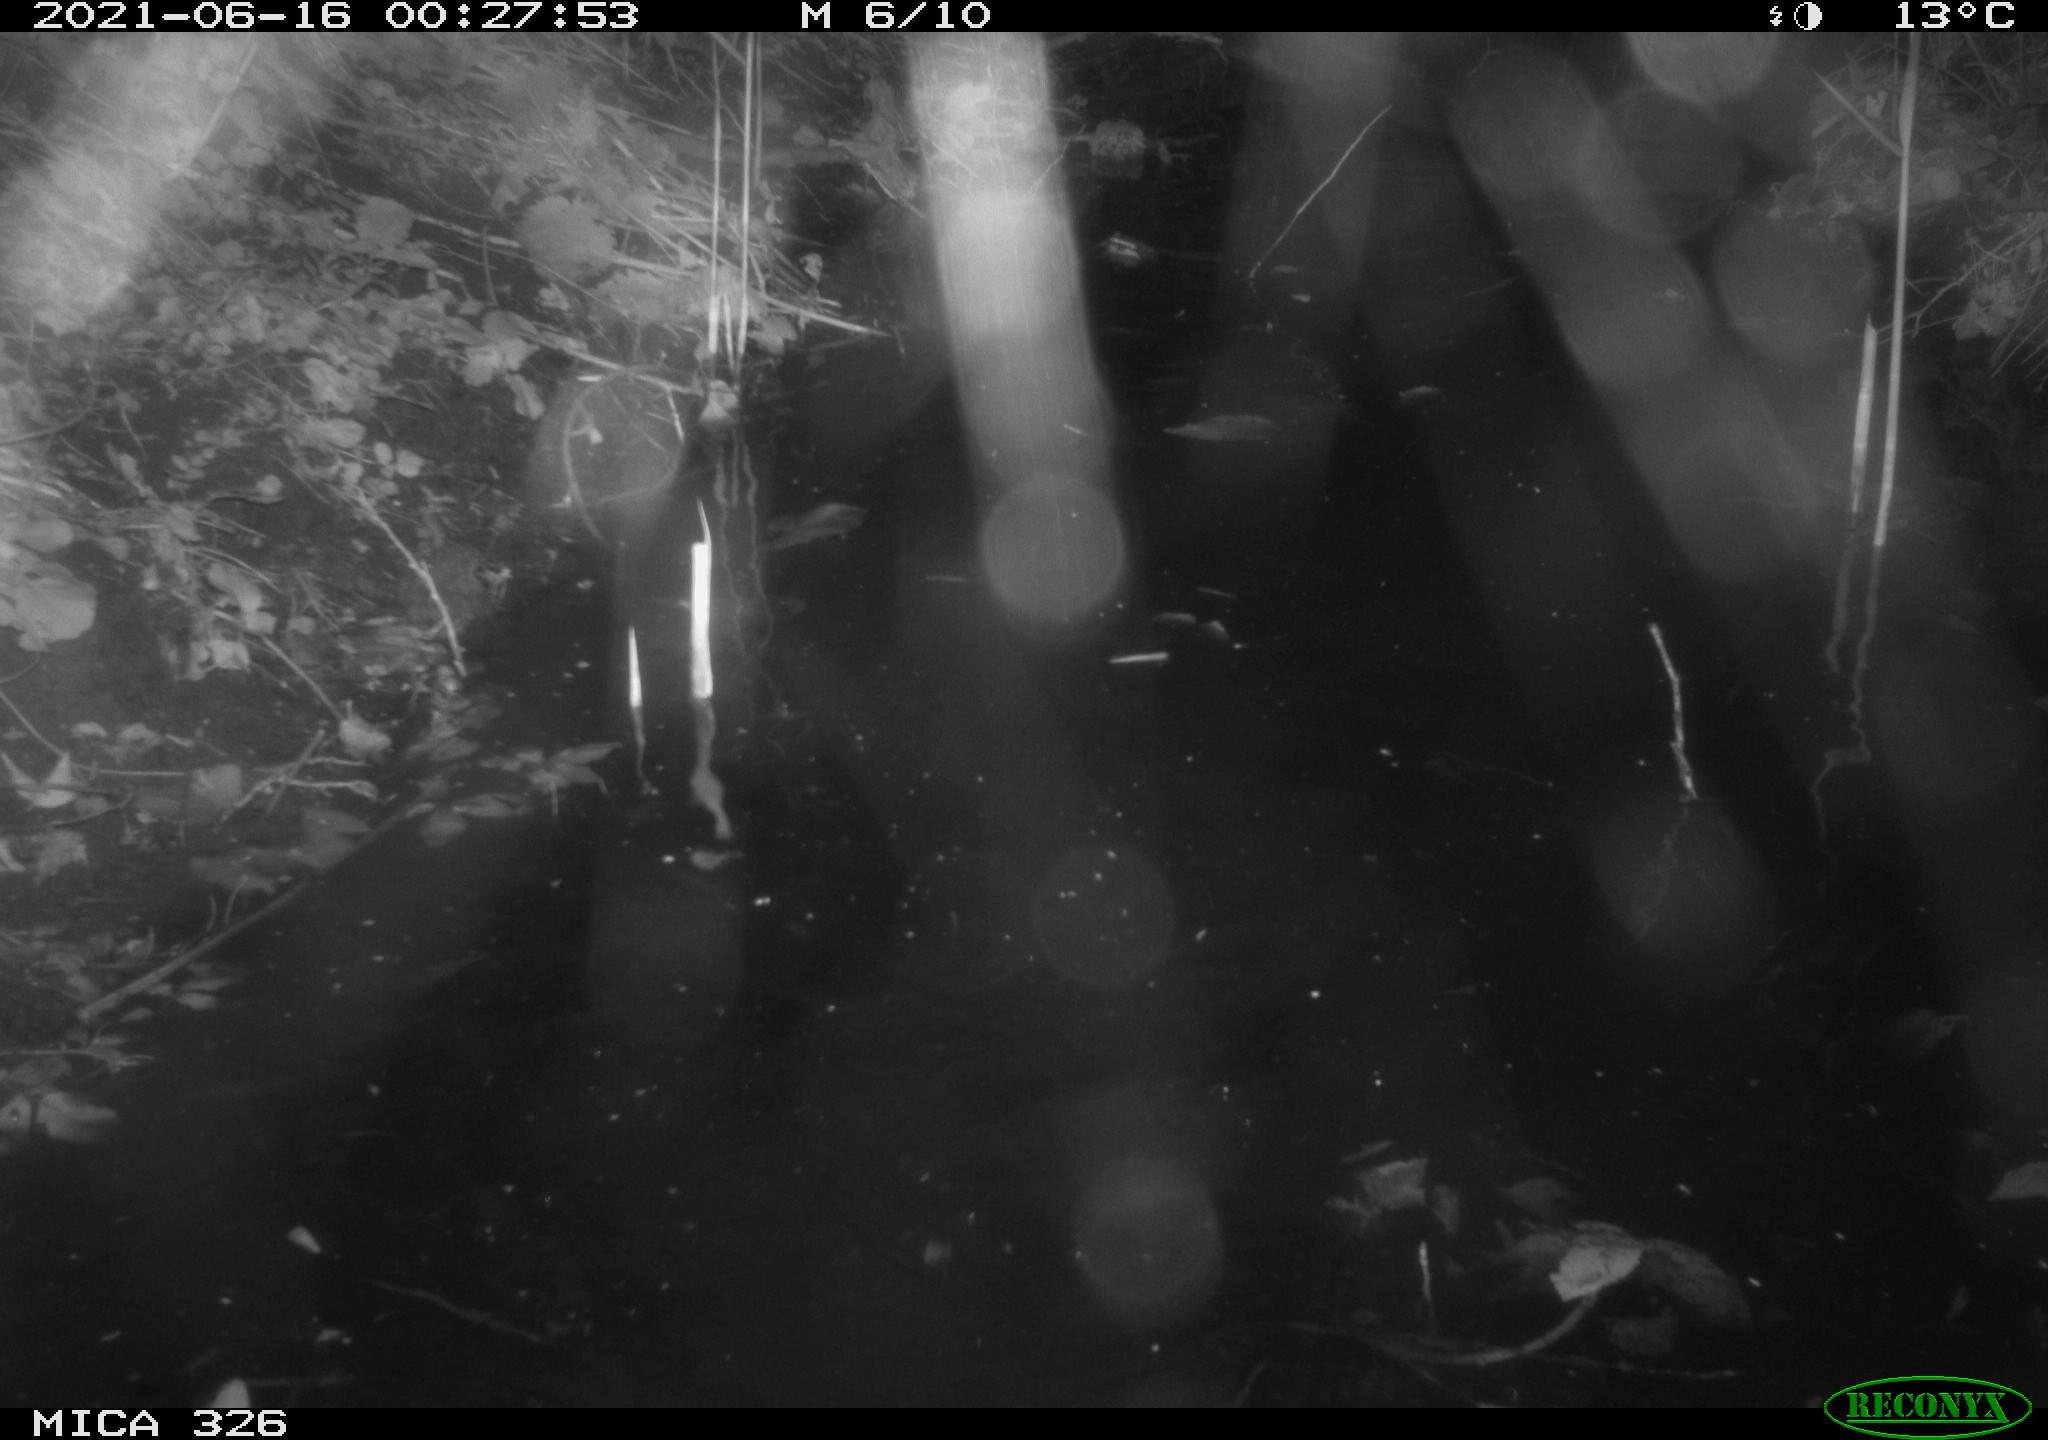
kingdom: Animalia
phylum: Chordata
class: Mammalia
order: Carnivora
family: Mustelidae
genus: Lutra
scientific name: Lutra lutra
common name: European otter
